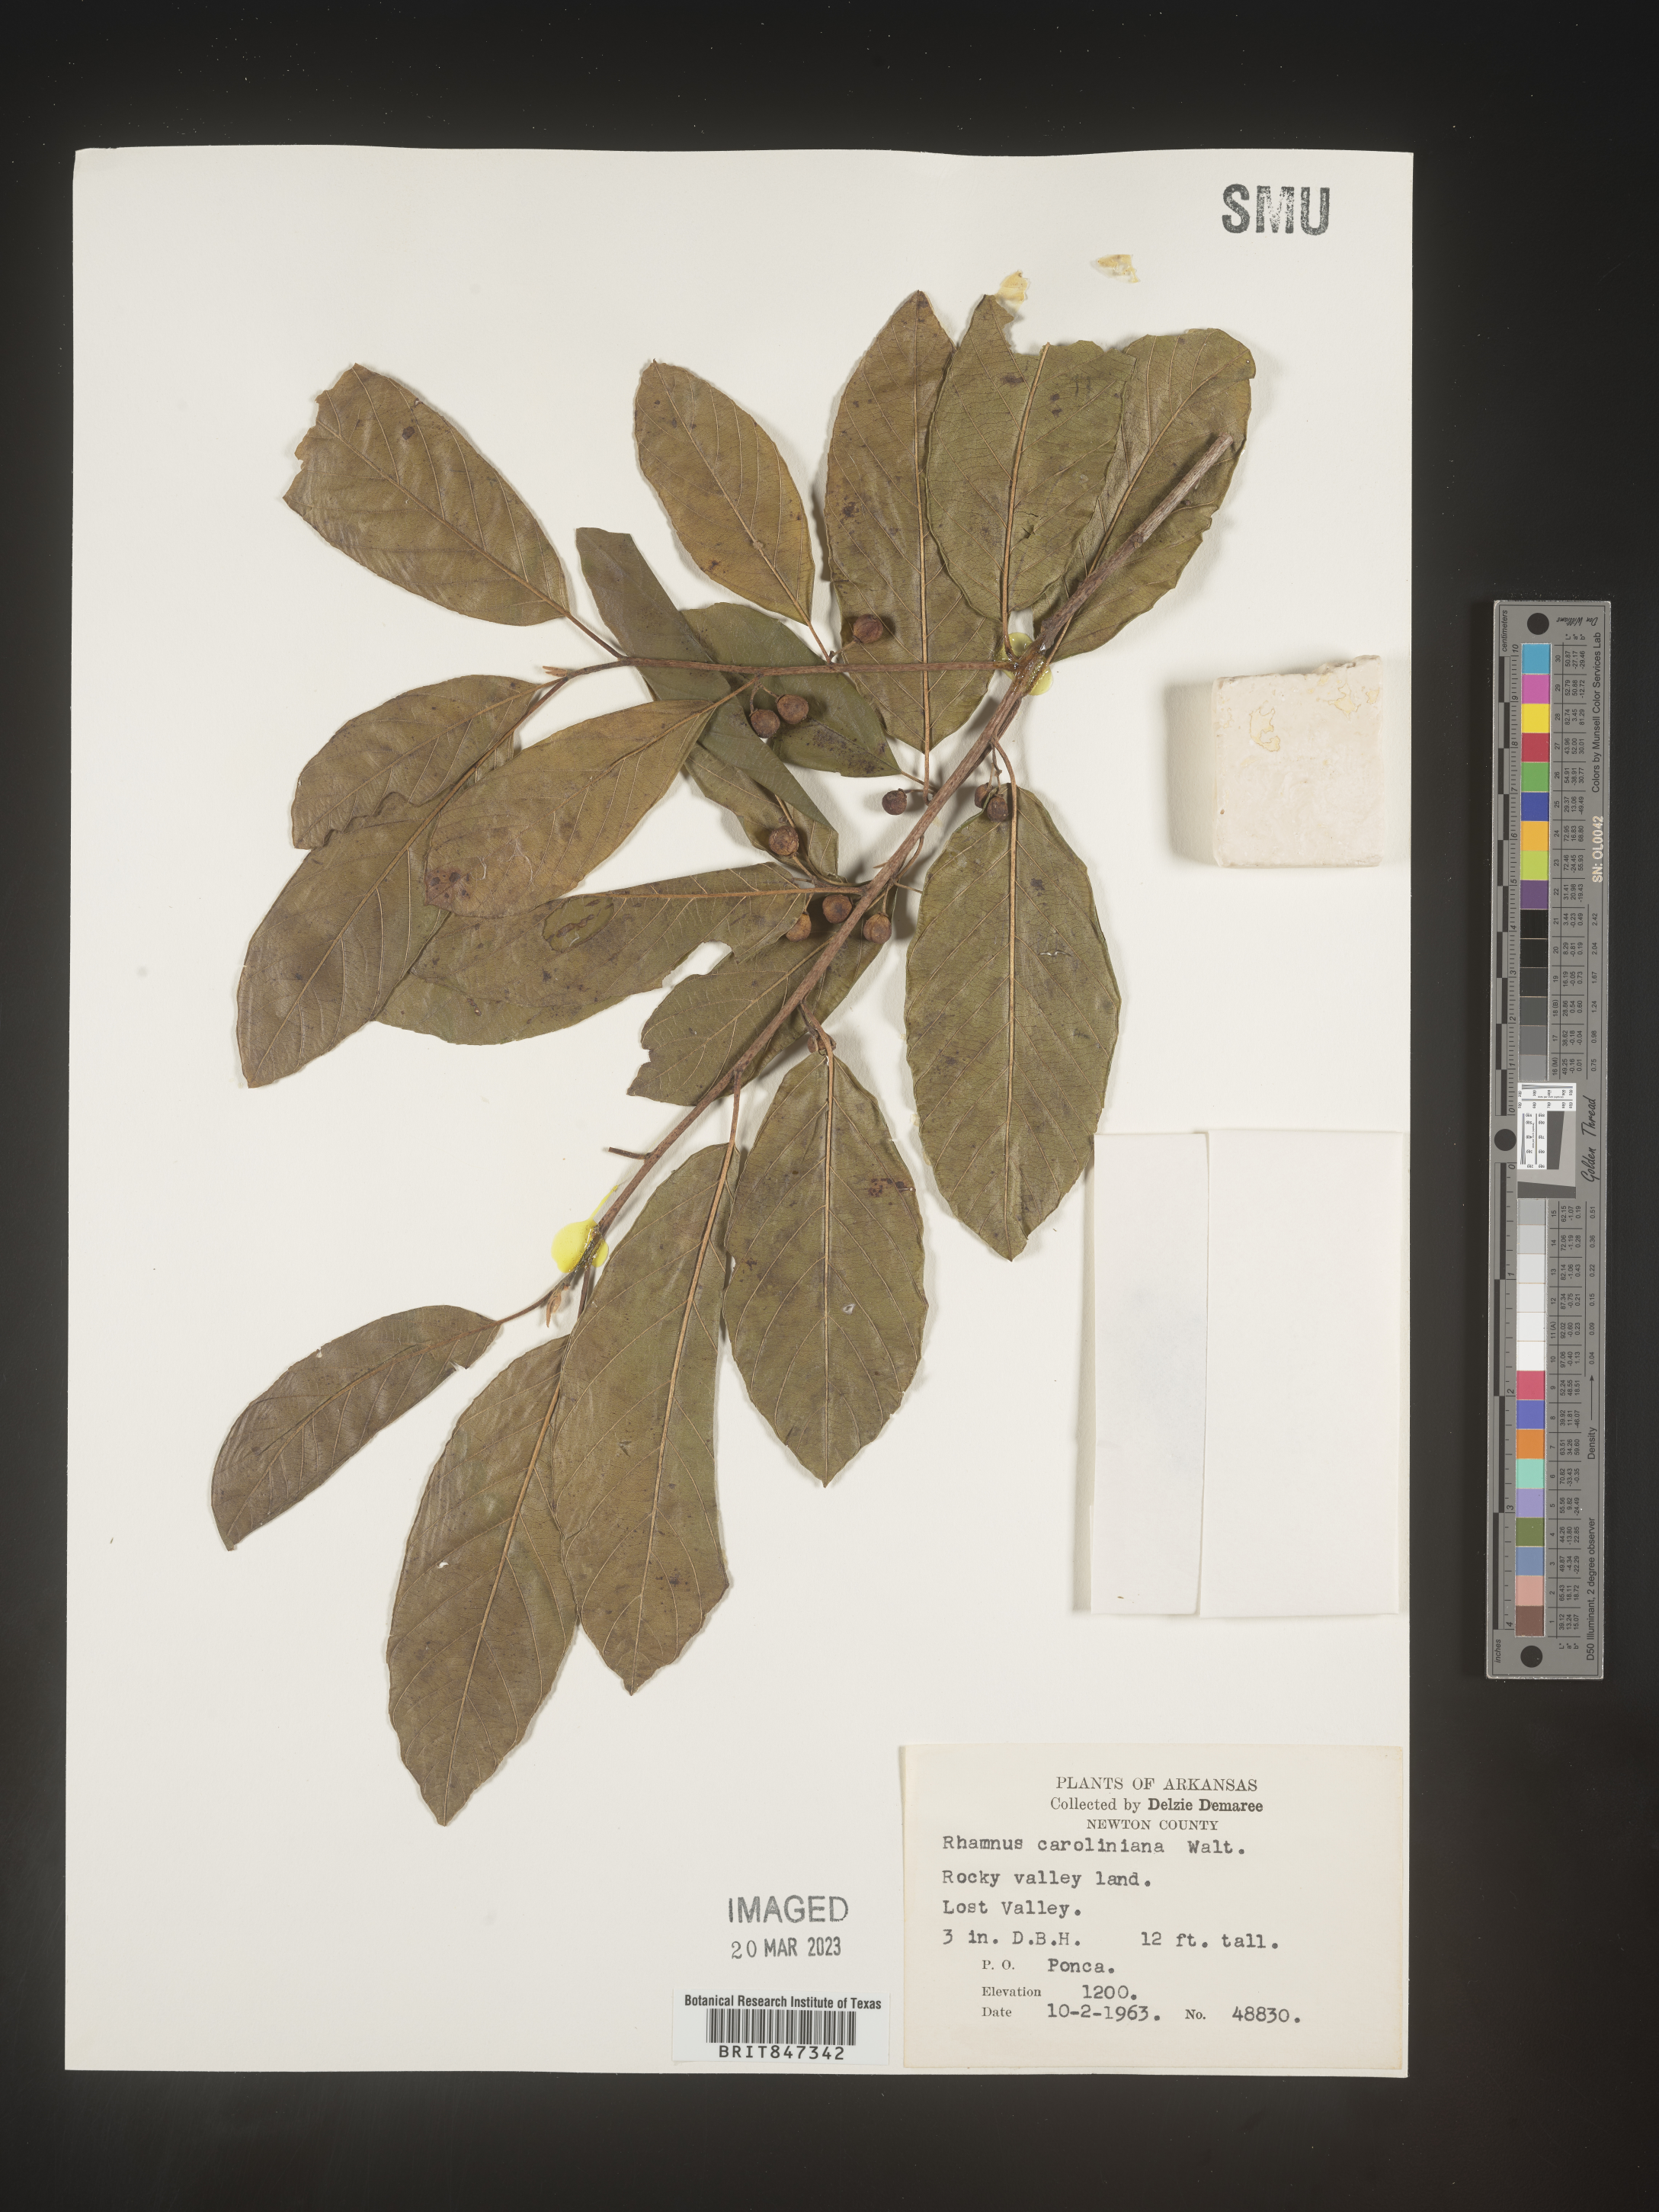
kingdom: Plantae
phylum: Tracheophyta
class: Magnoliopsida
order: Rosales
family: Rhamnaceae
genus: Frangula
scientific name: Frangula caroliniana
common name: Carolina buckthorn
